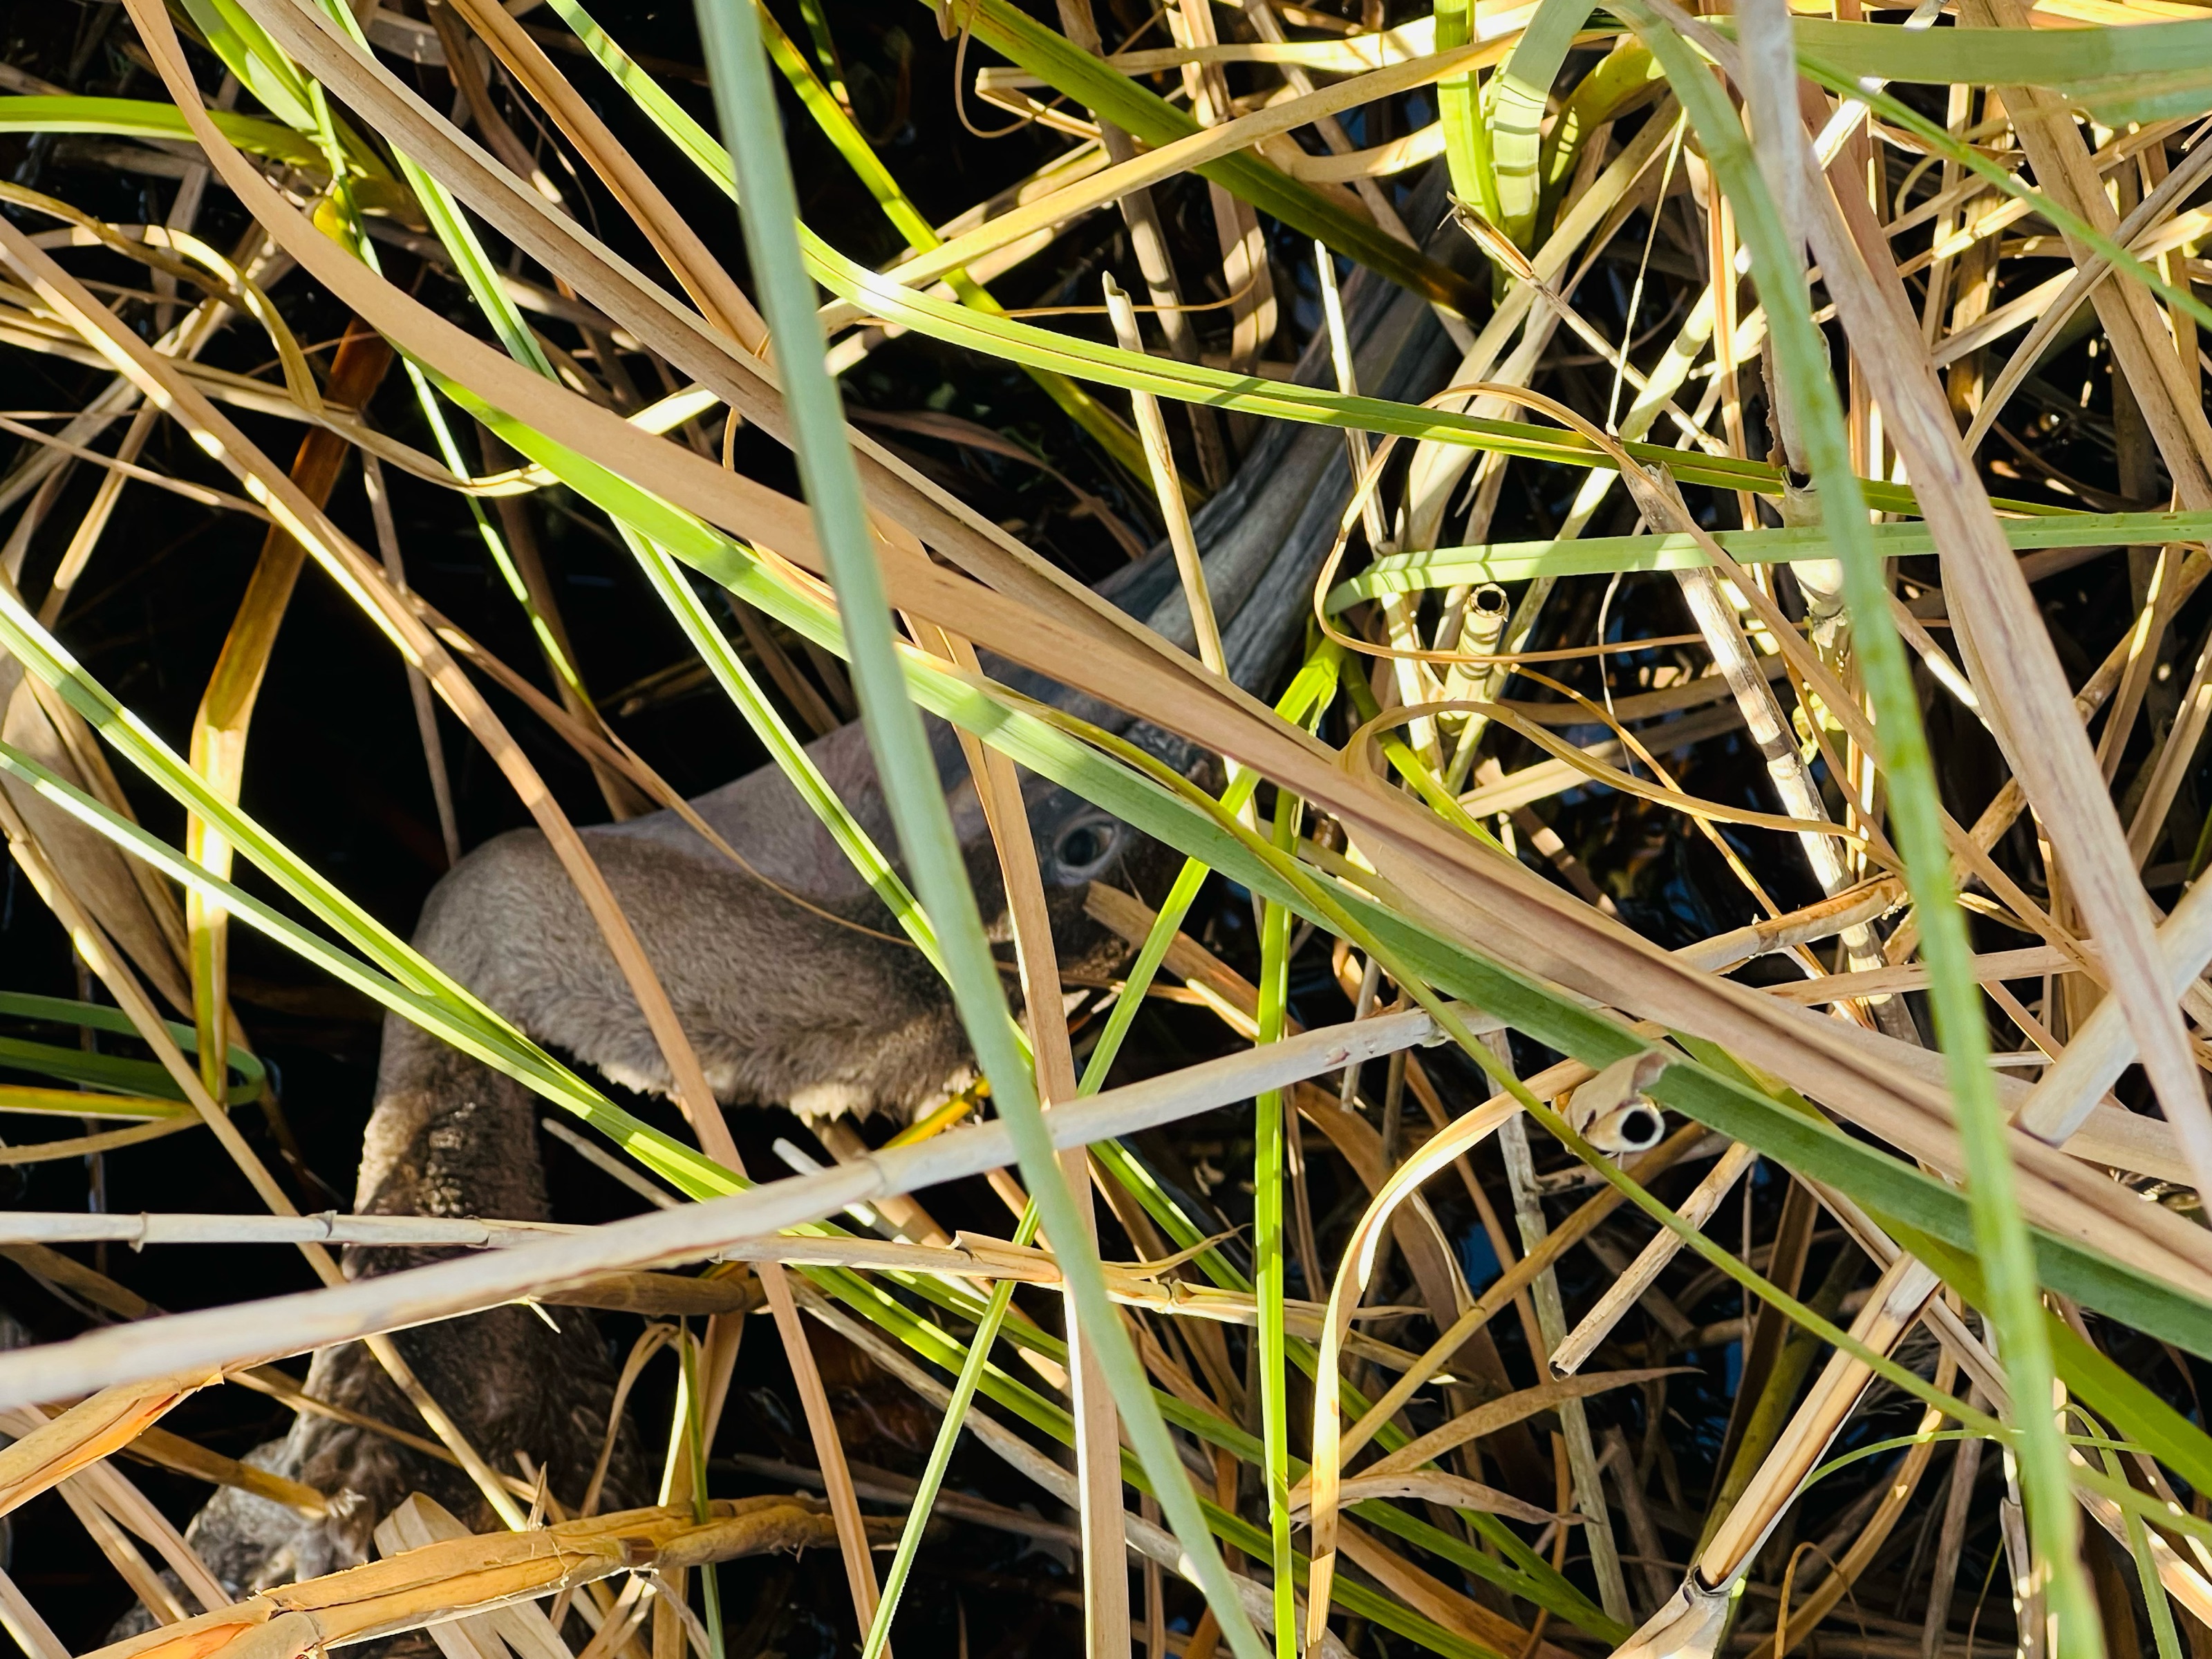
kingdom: Animalia
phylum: Chordata
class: Aves
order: Pelecaniformes
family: Pelecanidae
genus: Pelecanus
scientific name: Pelecanus occidentalis
